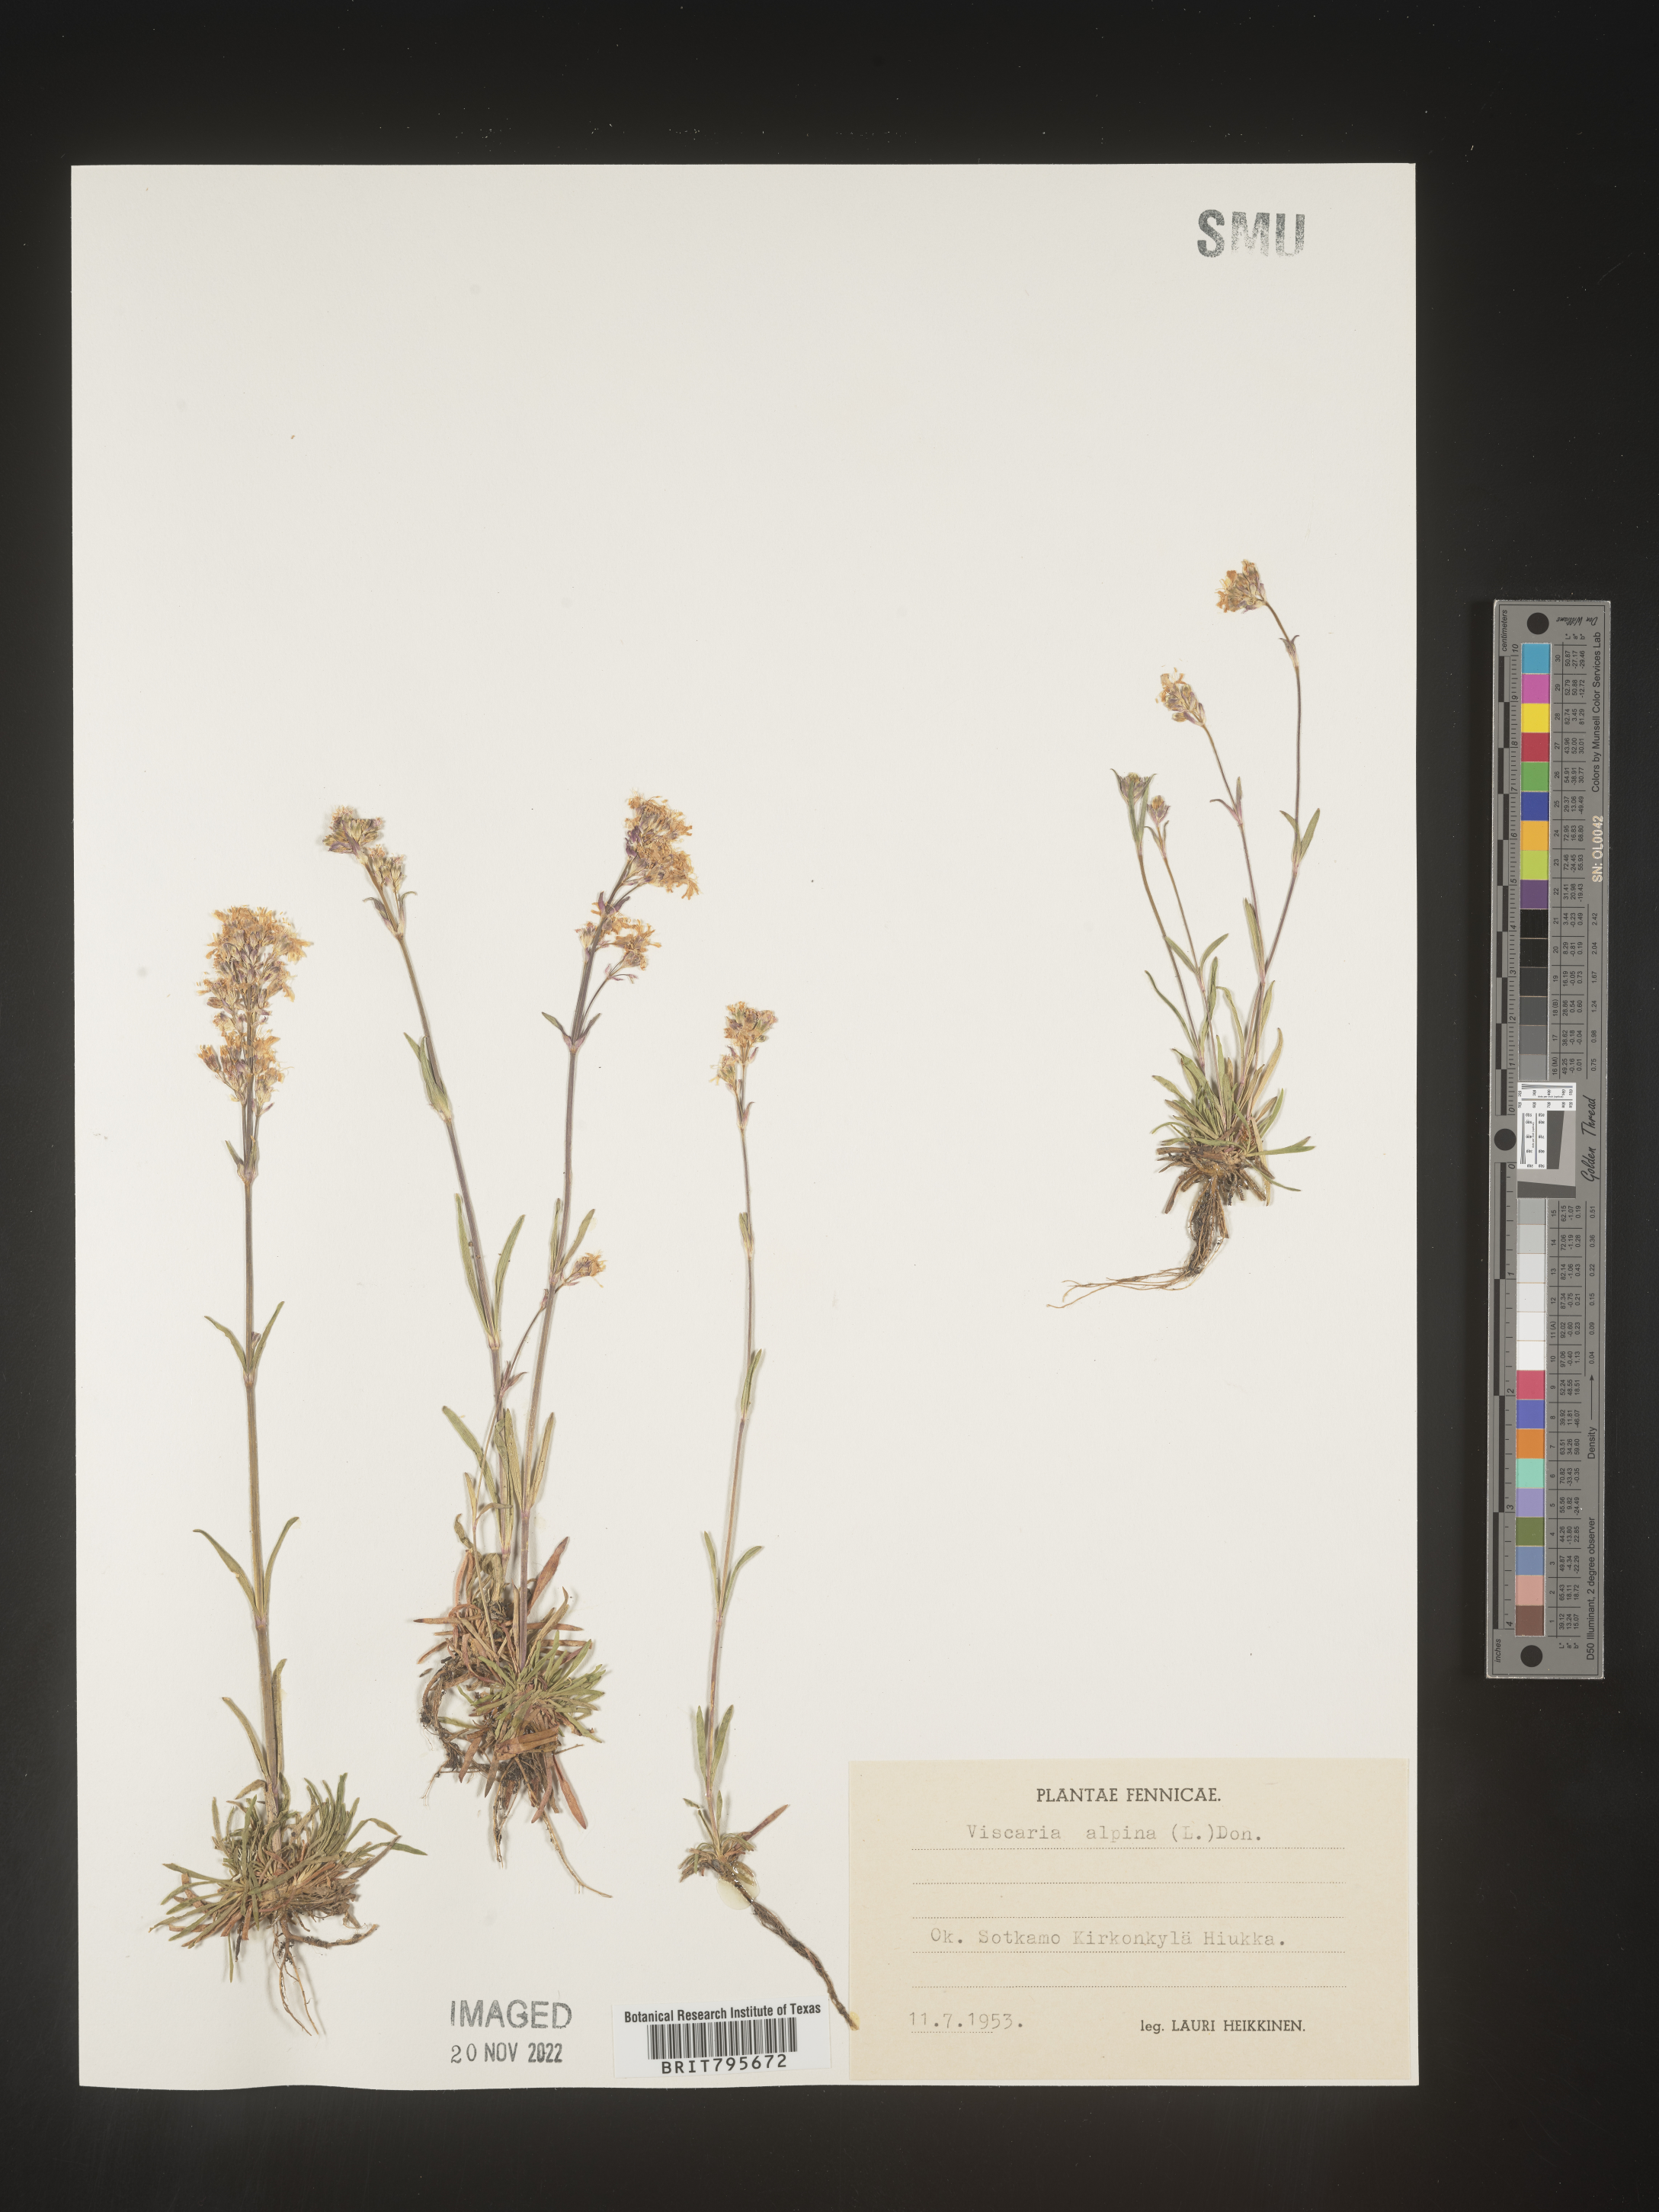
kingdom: Plantae
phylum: Tracheophyta
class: Magnoliopsida
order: Caryophyllales
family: Caryophyllaceae
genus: Viscaria
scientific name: Viscaria
